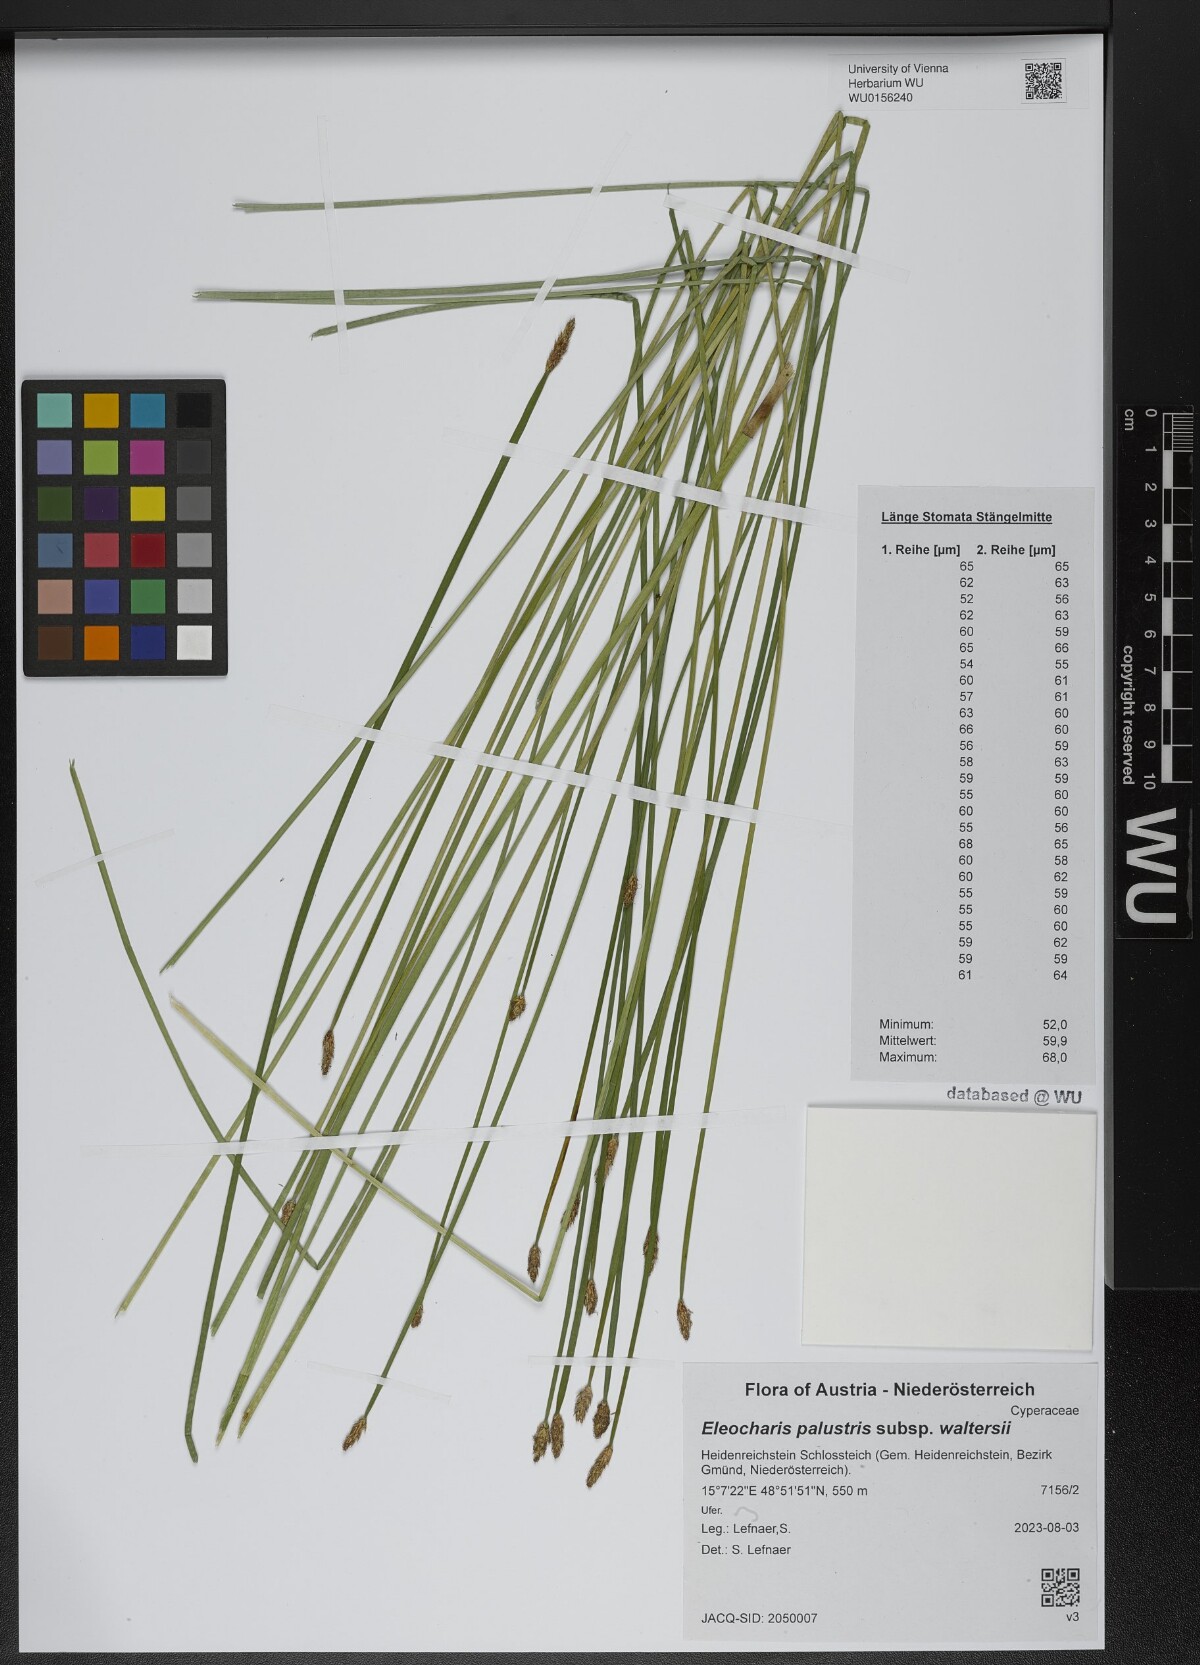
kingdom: Plantae
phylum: Tracheophyta
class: Liliopsida
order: Poales
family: Cyperaceae
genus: Eleocharis
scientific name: Eleocharis palustris
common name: Common spike-rush
